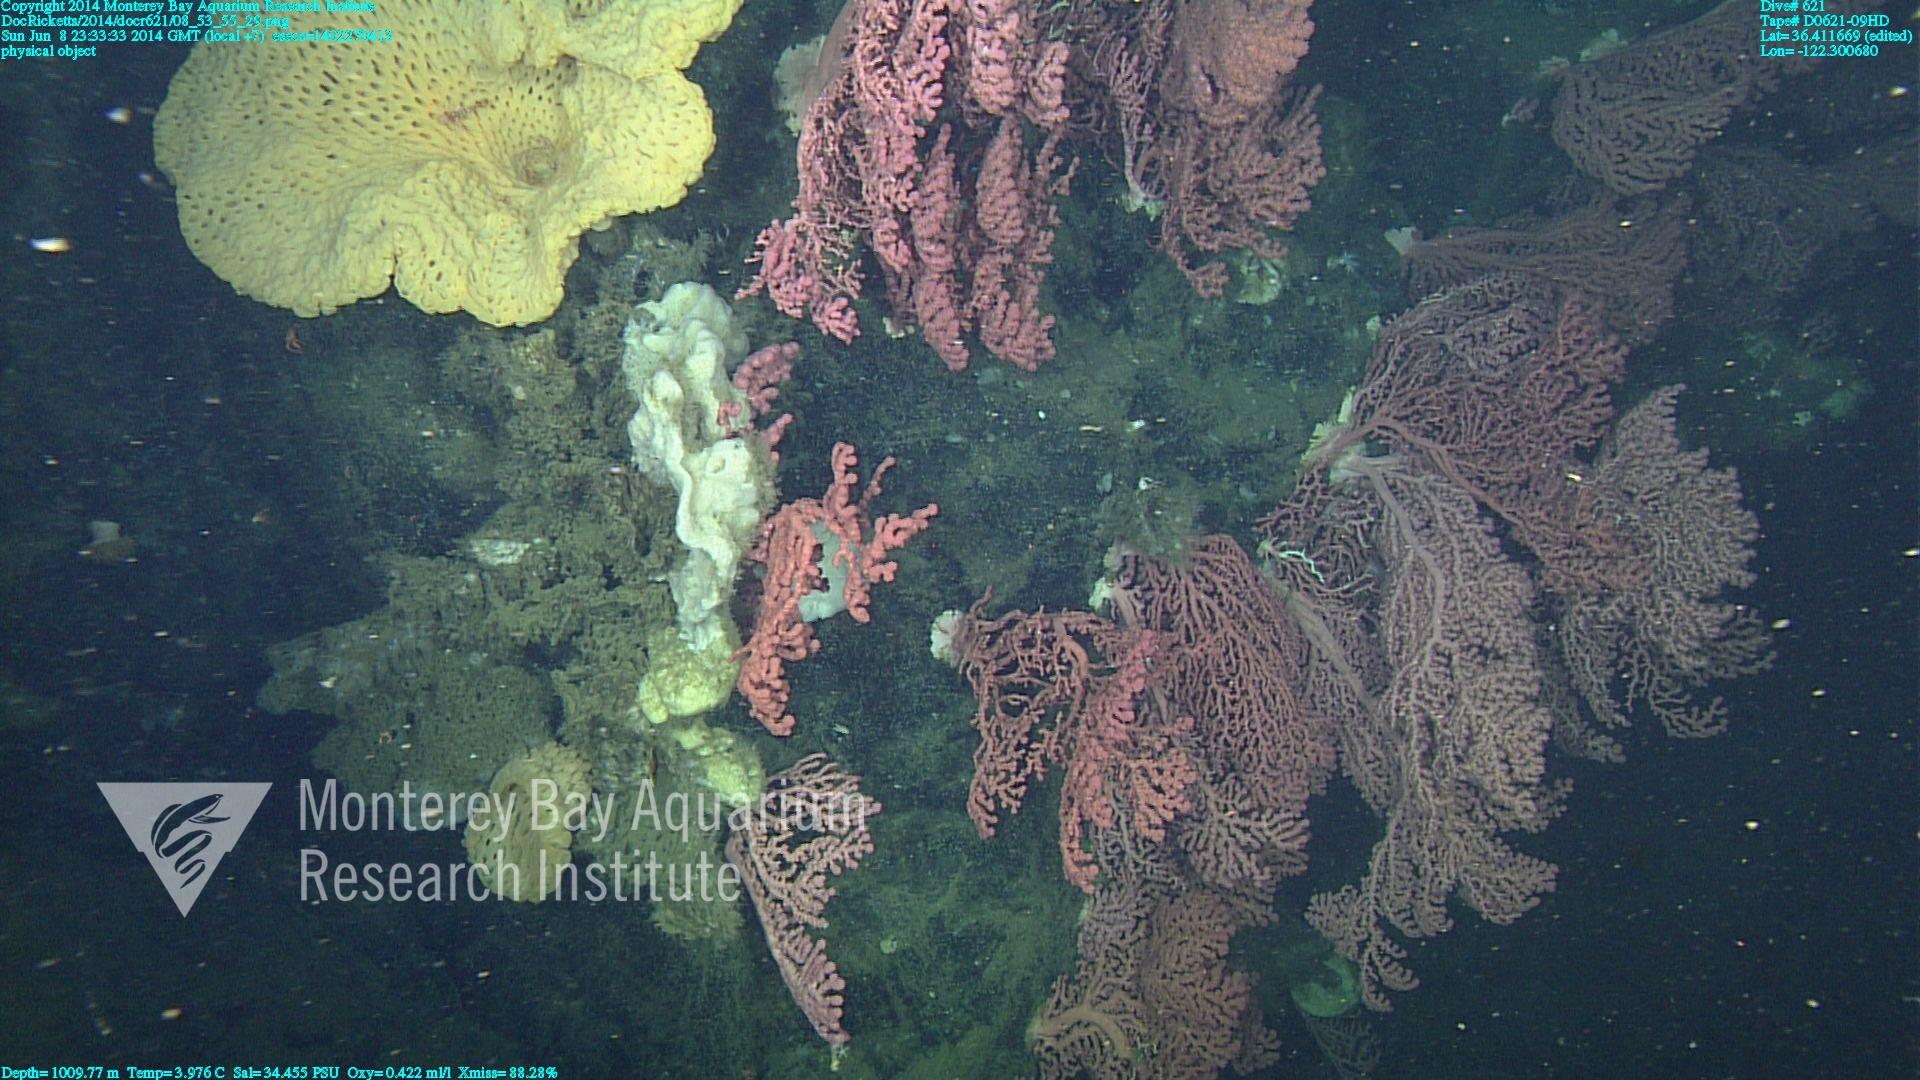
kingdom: Animalia
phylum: Cnidaria
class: Anthozoa
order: Scleralcyonacea
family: Coralliidae
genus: Paragorgia
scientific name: Paragorgia arborea
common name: Bubble gum coral
